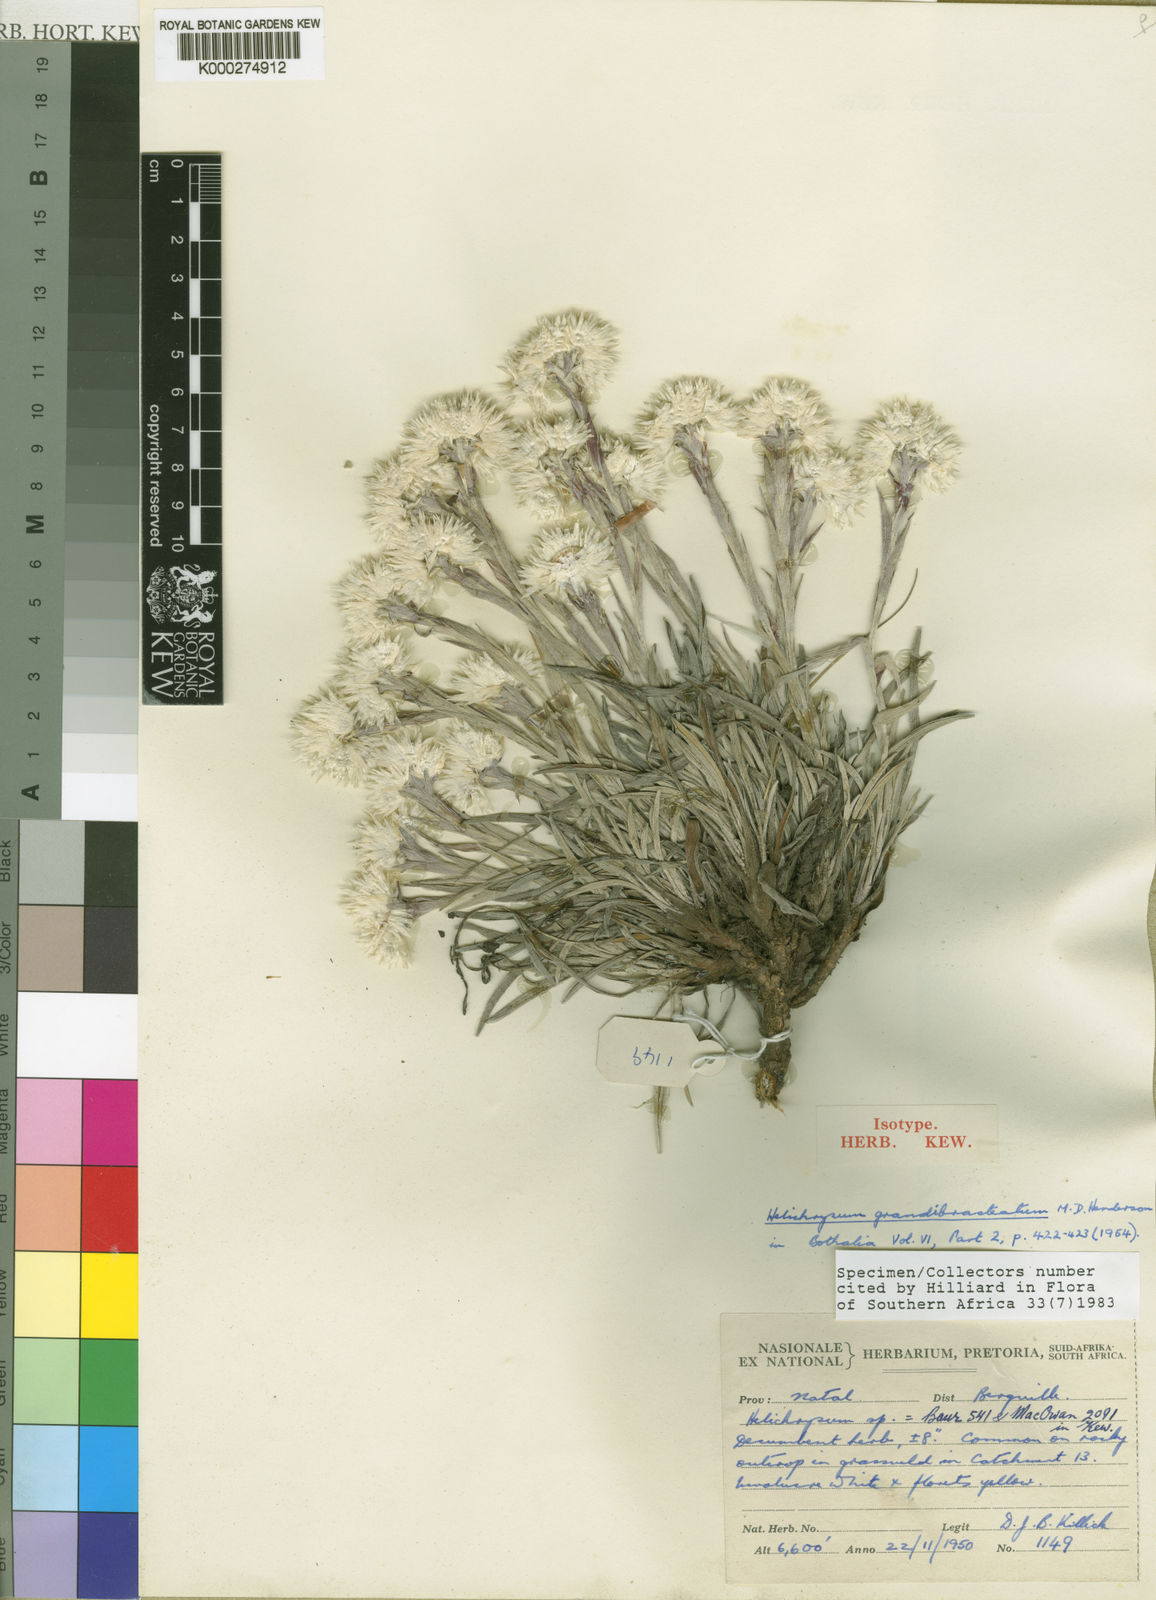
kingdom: Plantae
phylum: Tracheophyta
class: Magnoliopsida
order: Asterales
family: Asteraceae
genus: Helichrysum
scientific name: Helichrysum grandibracteatum
